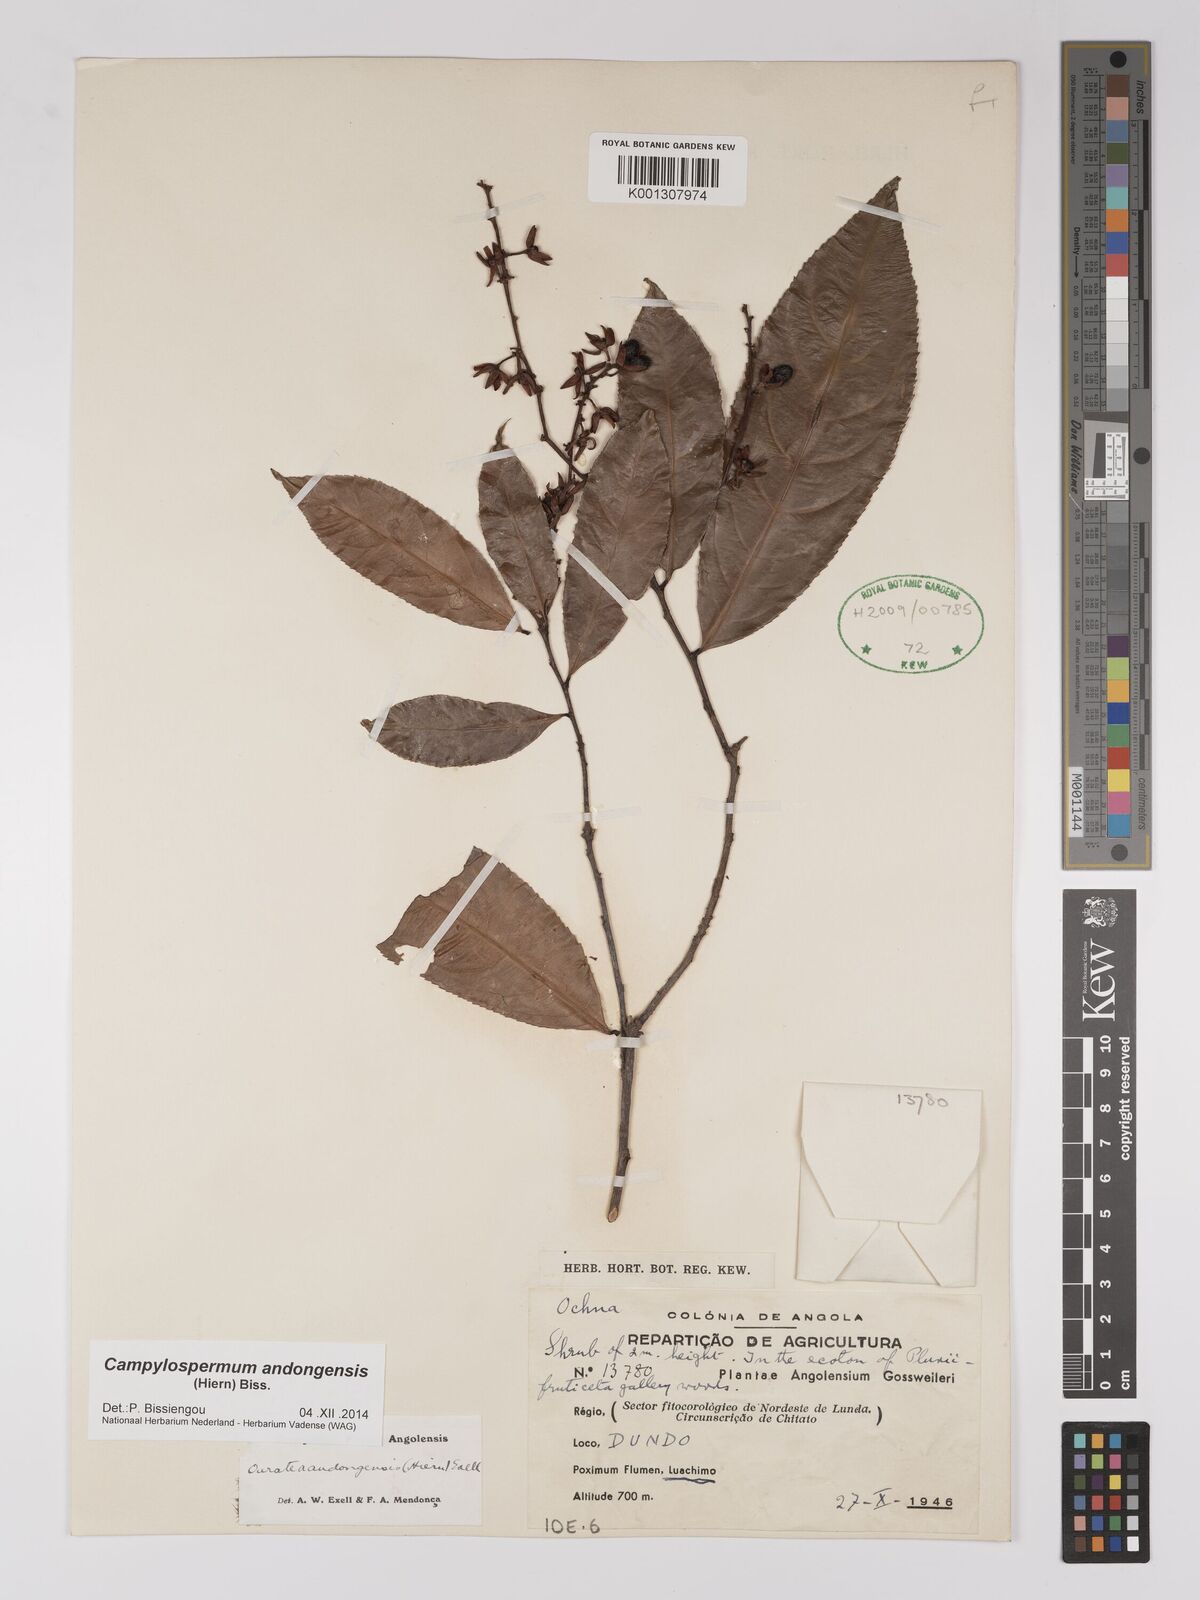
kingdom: Plantae
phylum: Tracheophyta
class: Magnoliopsida
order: Malpighiales
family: Ochnaceae
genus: Campylospermum
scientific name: Campylospermum
